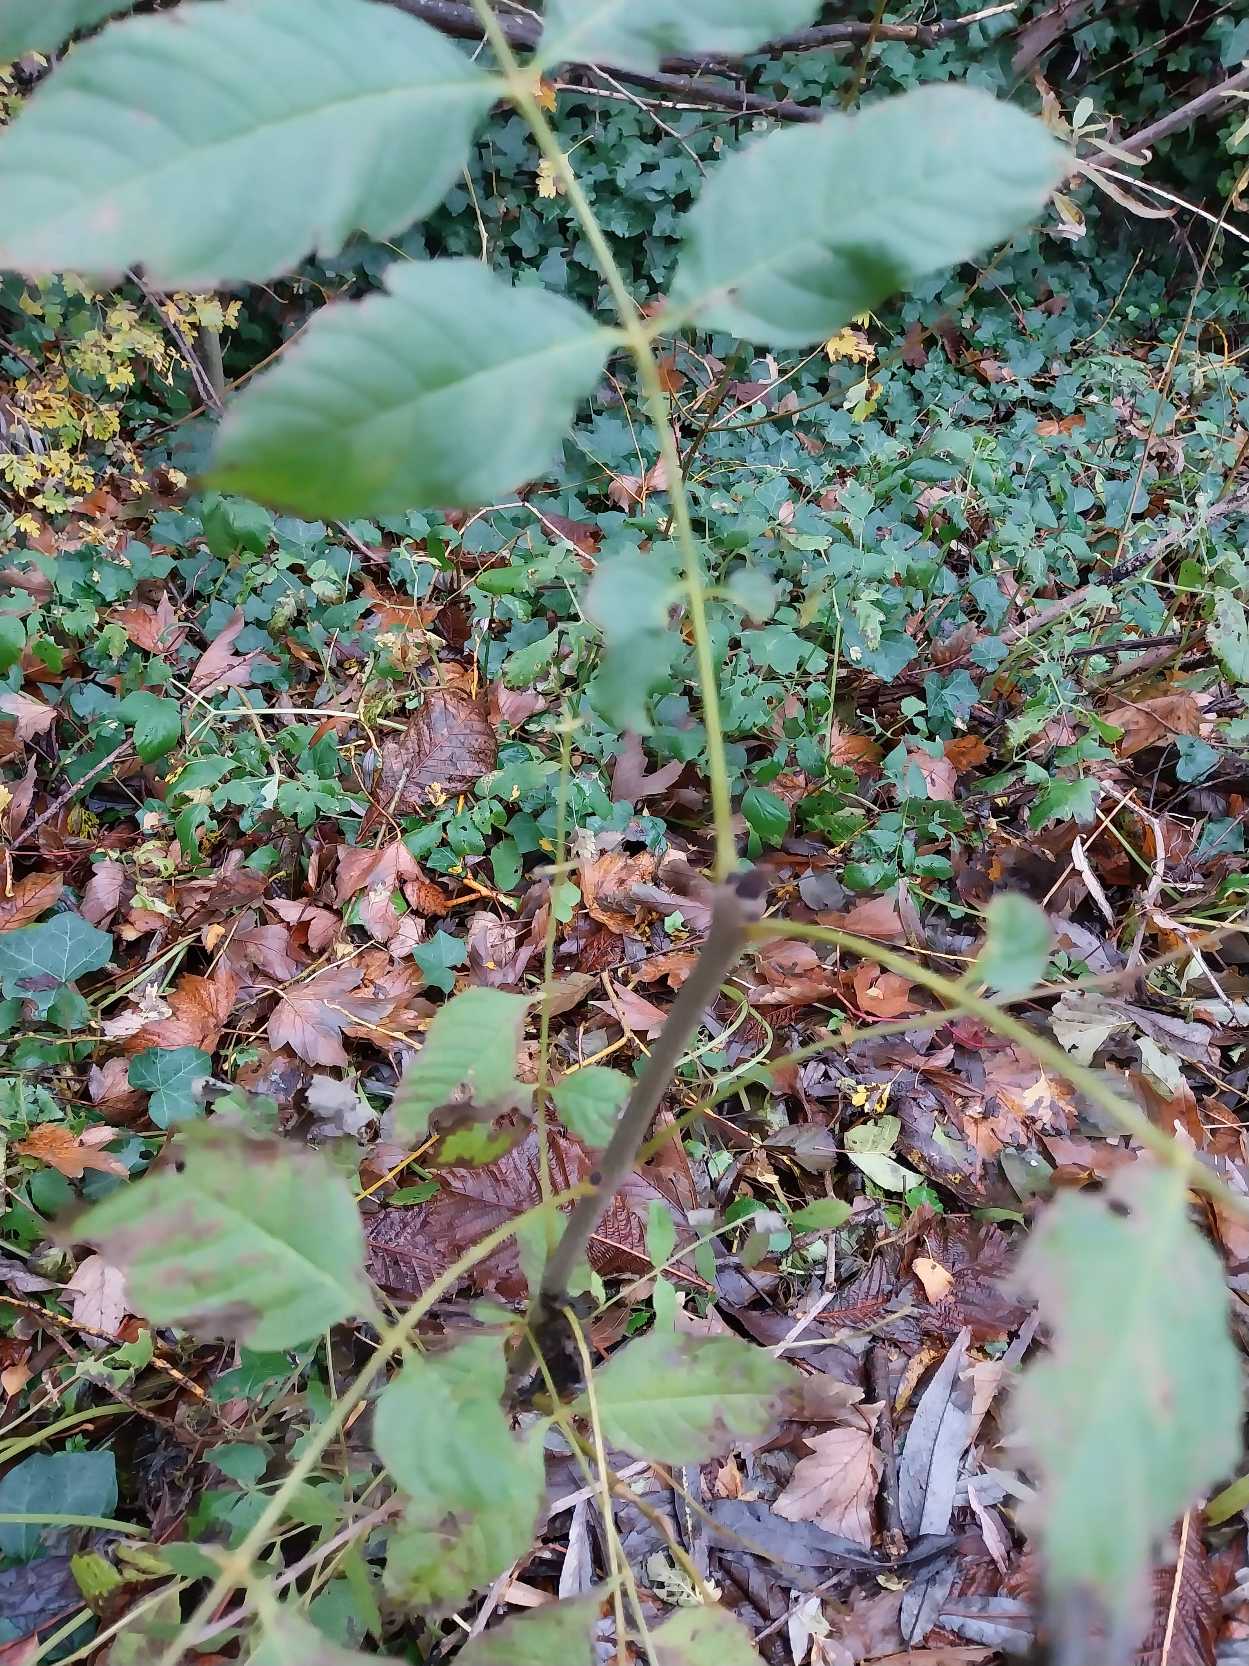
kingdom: Plantae
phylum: Tracheophyta
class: Magnoliopsida
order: Lamiales
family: Oleaceae
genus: Fraxinus
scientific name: Fraxinus excelsior
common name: Ask
